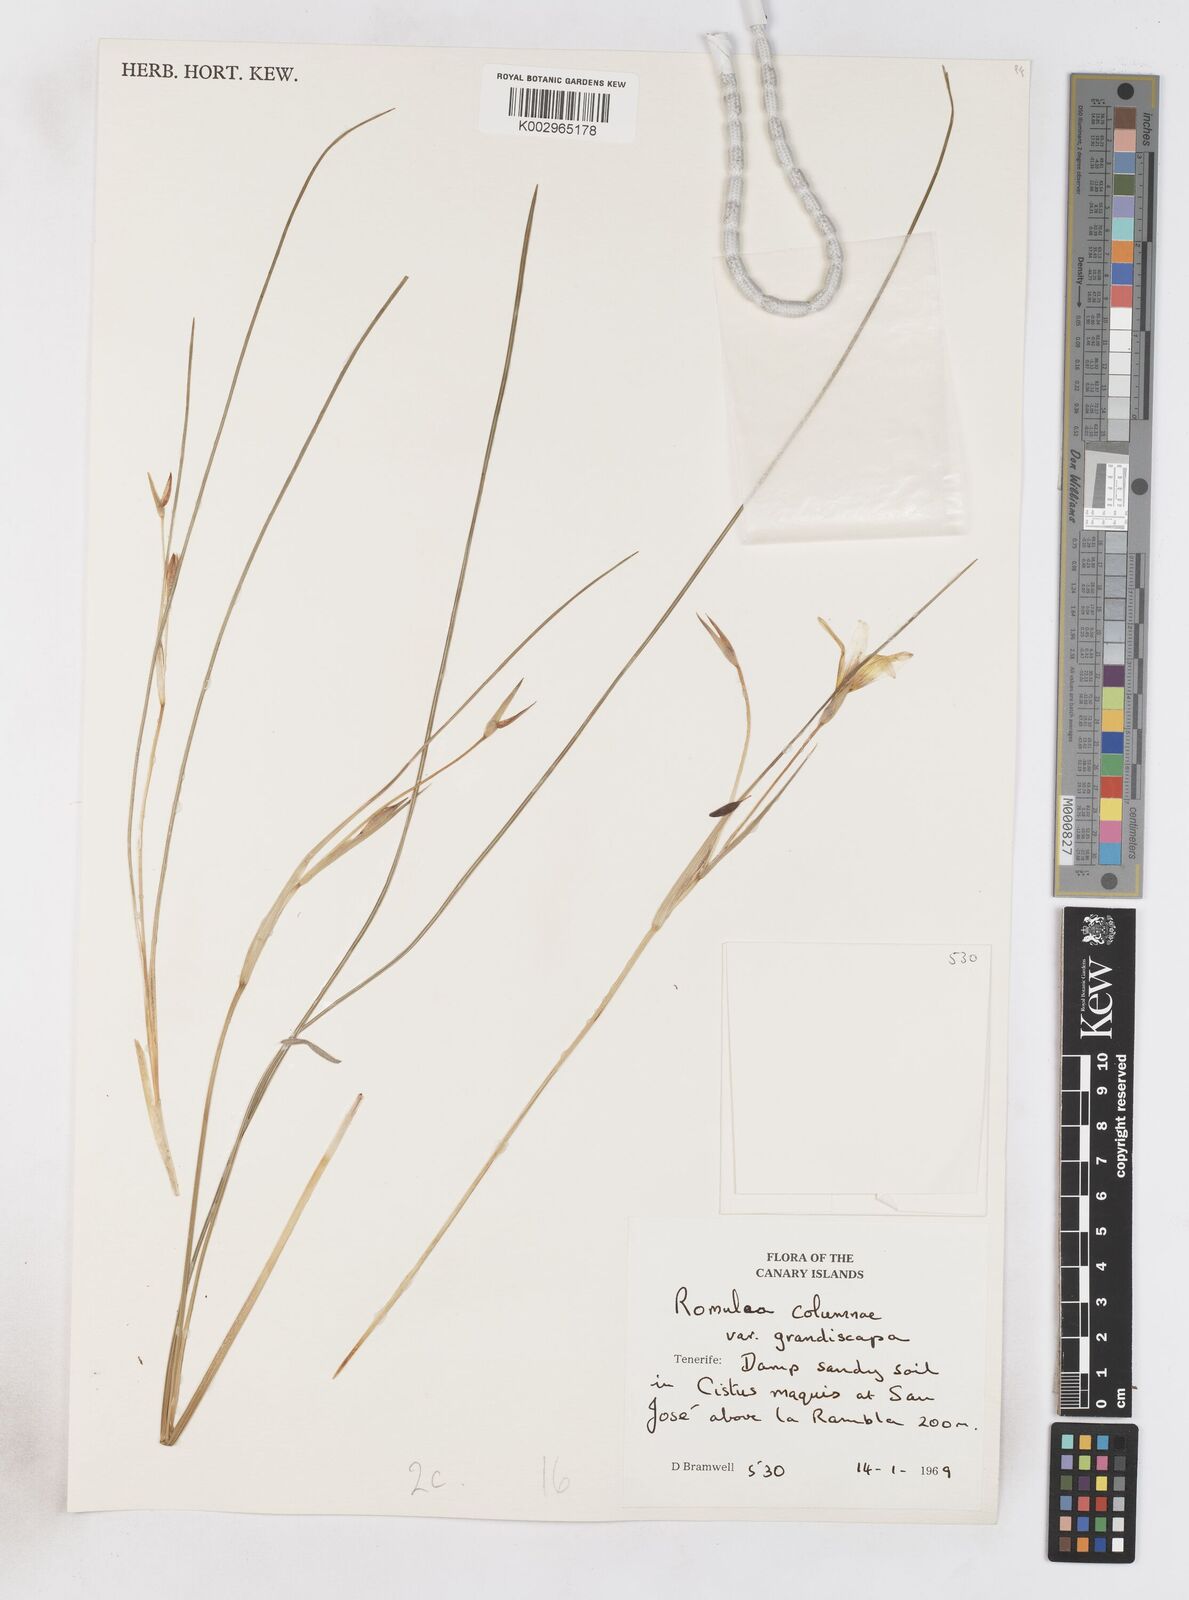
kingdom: Plantae
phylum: Tracheophyta
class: Liliopsida
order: Asparagales
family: Iridaceae
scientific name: Iridaceae
